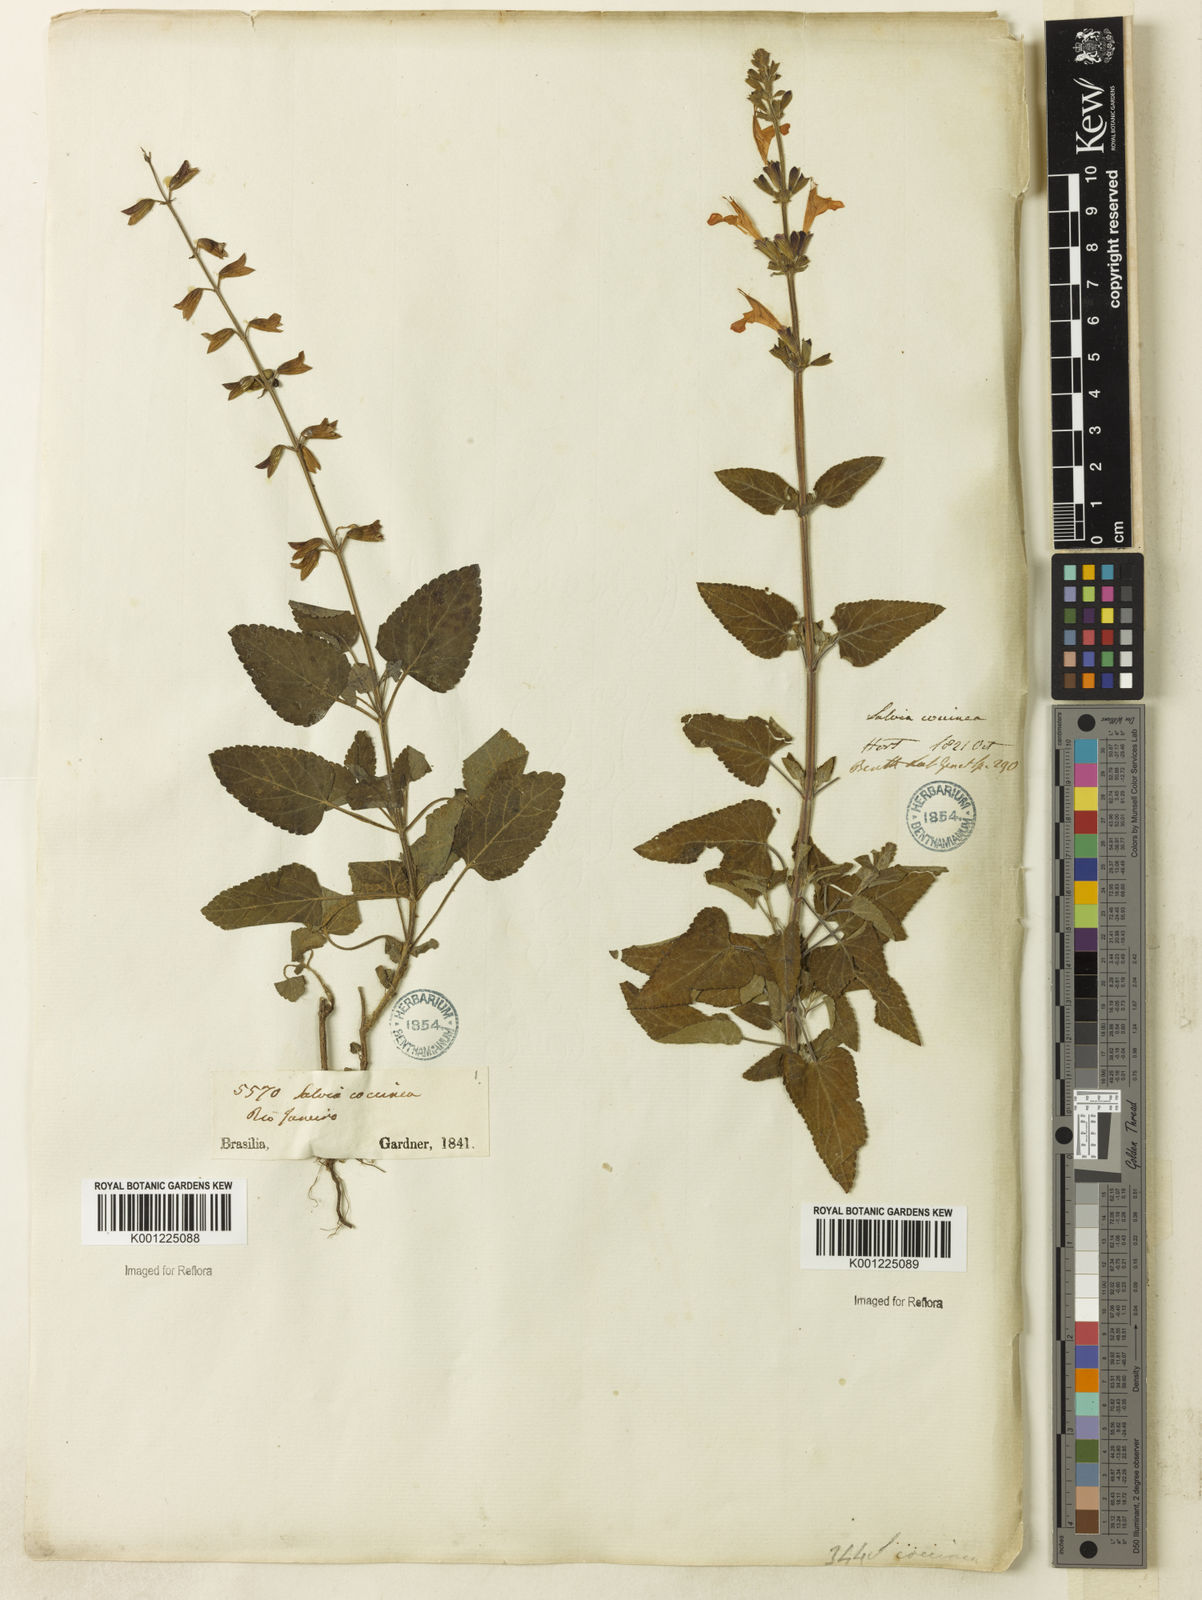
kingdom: Plantae
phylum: Tracheophyta
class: Magnoliopsida
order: Lamiales
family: Lamiaceae
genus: Salvia
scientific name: Salvia coccinea
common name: Blood sage
